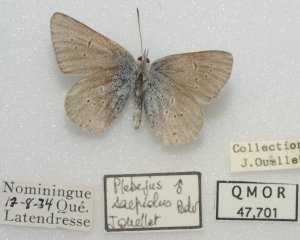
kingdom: Animalia
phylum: Arthropoda
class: Insecta
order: Lepidoptera
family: Lycaenidae
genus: Plebejus
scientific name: Plebejus saepiolus
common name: Greenish Blue
